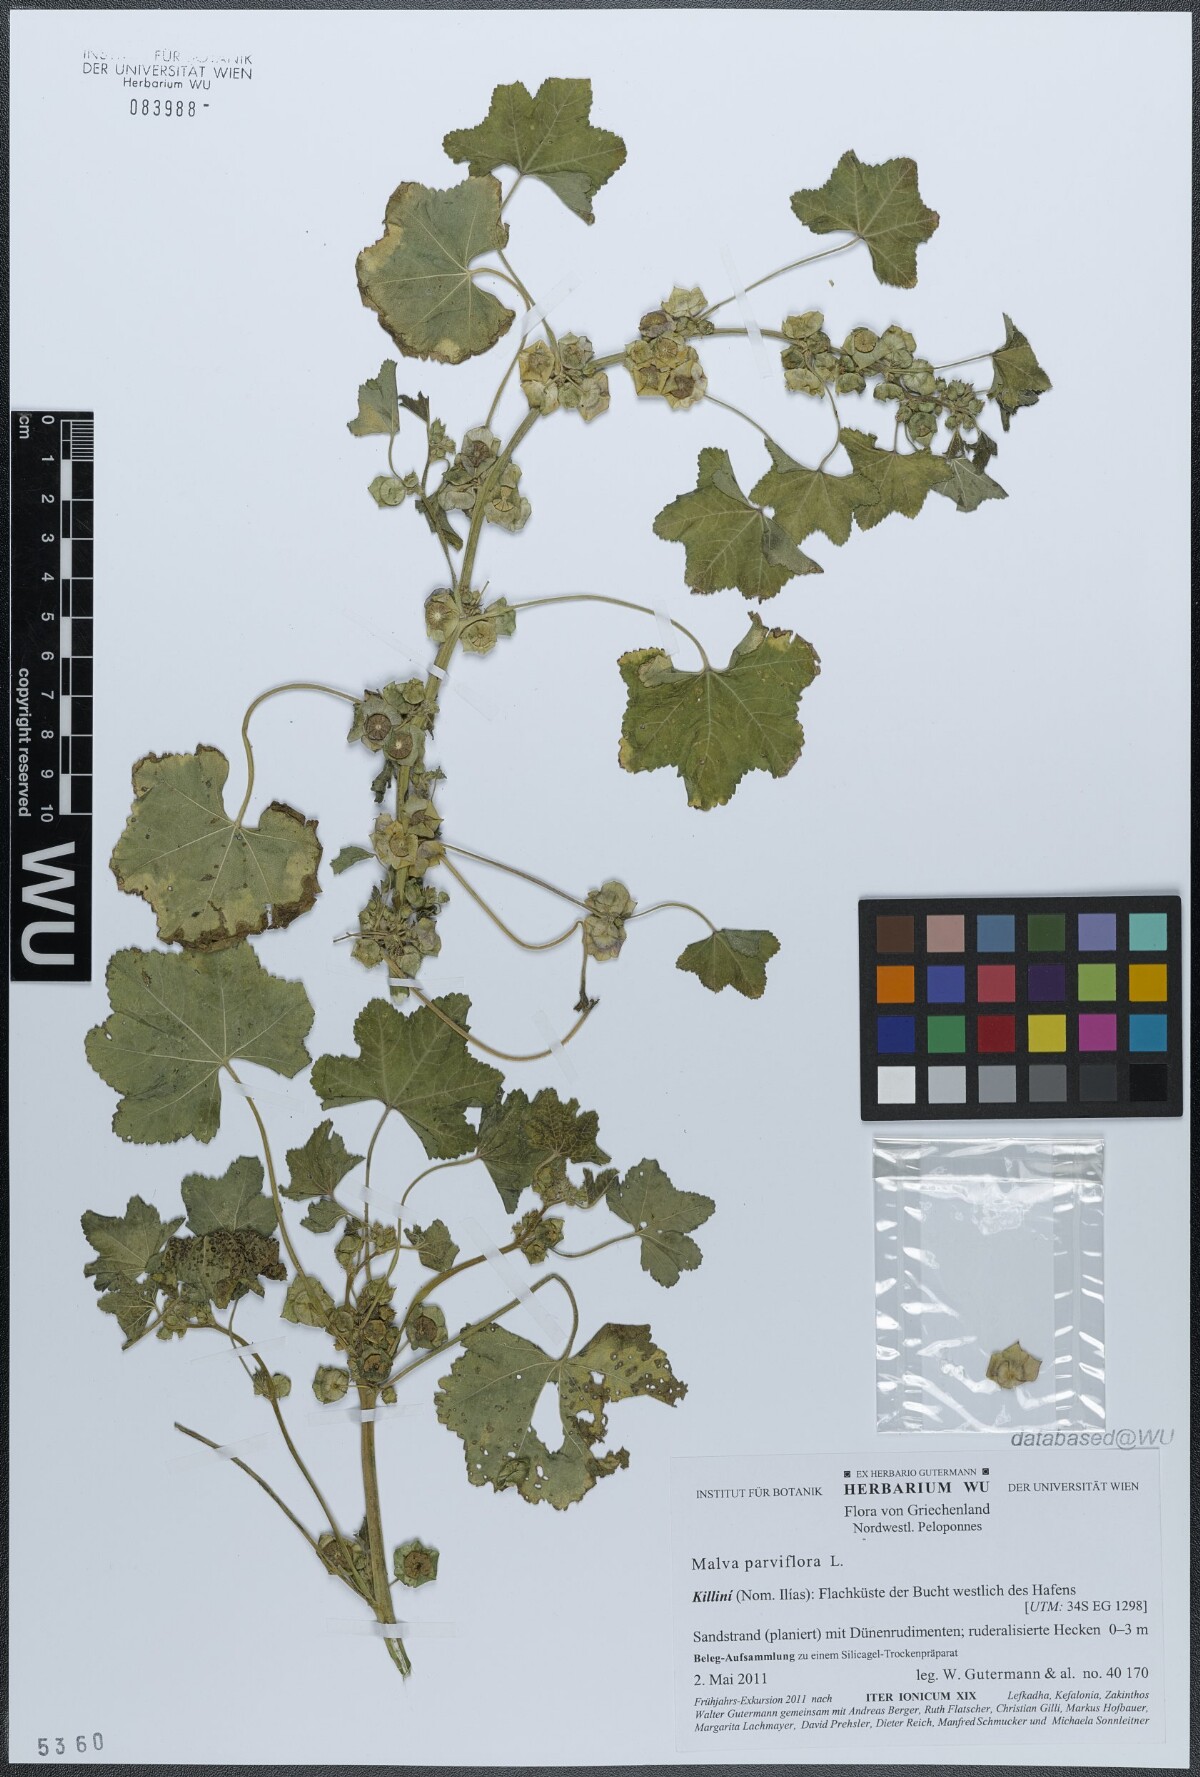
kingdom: Plantae
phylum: Tracheophyta
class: Magnoliopsida
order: Malvales
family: Malvaceae
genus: Malva
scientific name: Malva parviflora
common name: Least mallow
